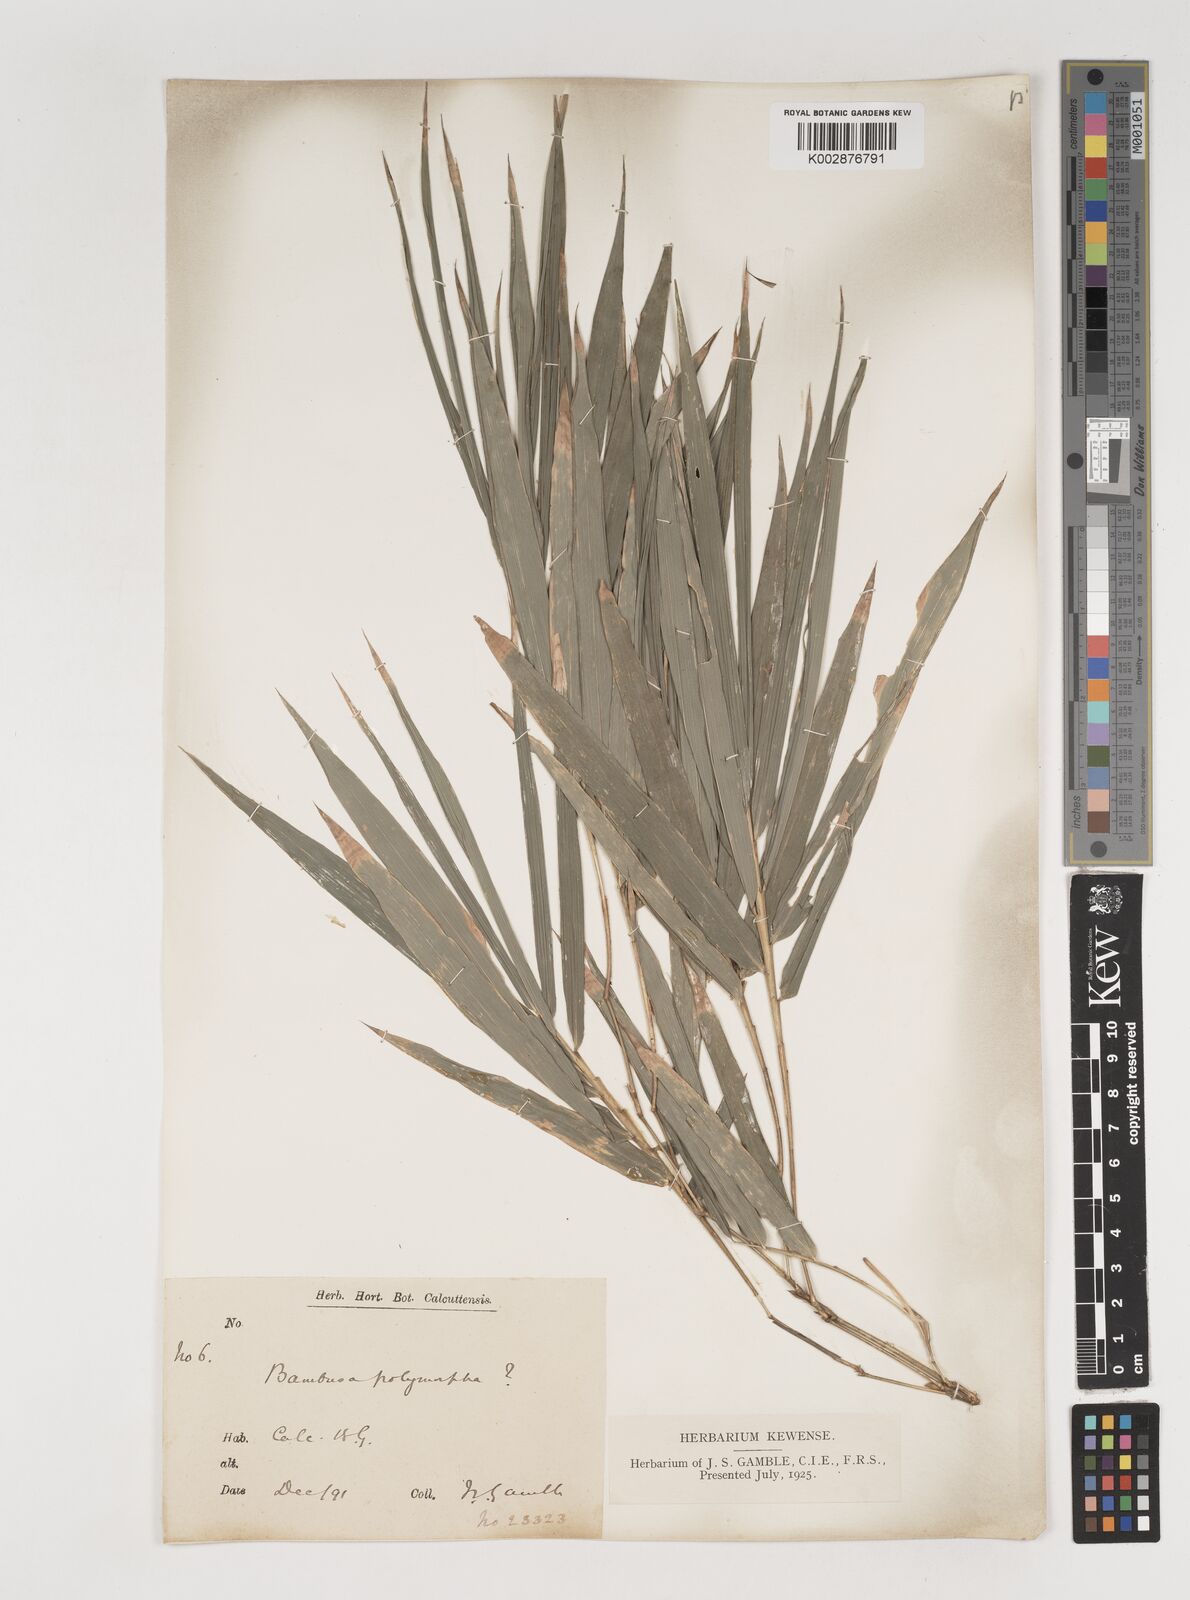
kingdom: Plantae
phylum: Tracheophyta
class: Liliopsida
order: Poales
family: Poaceae
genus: Bambusa
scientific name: Bambusa polymorpha
